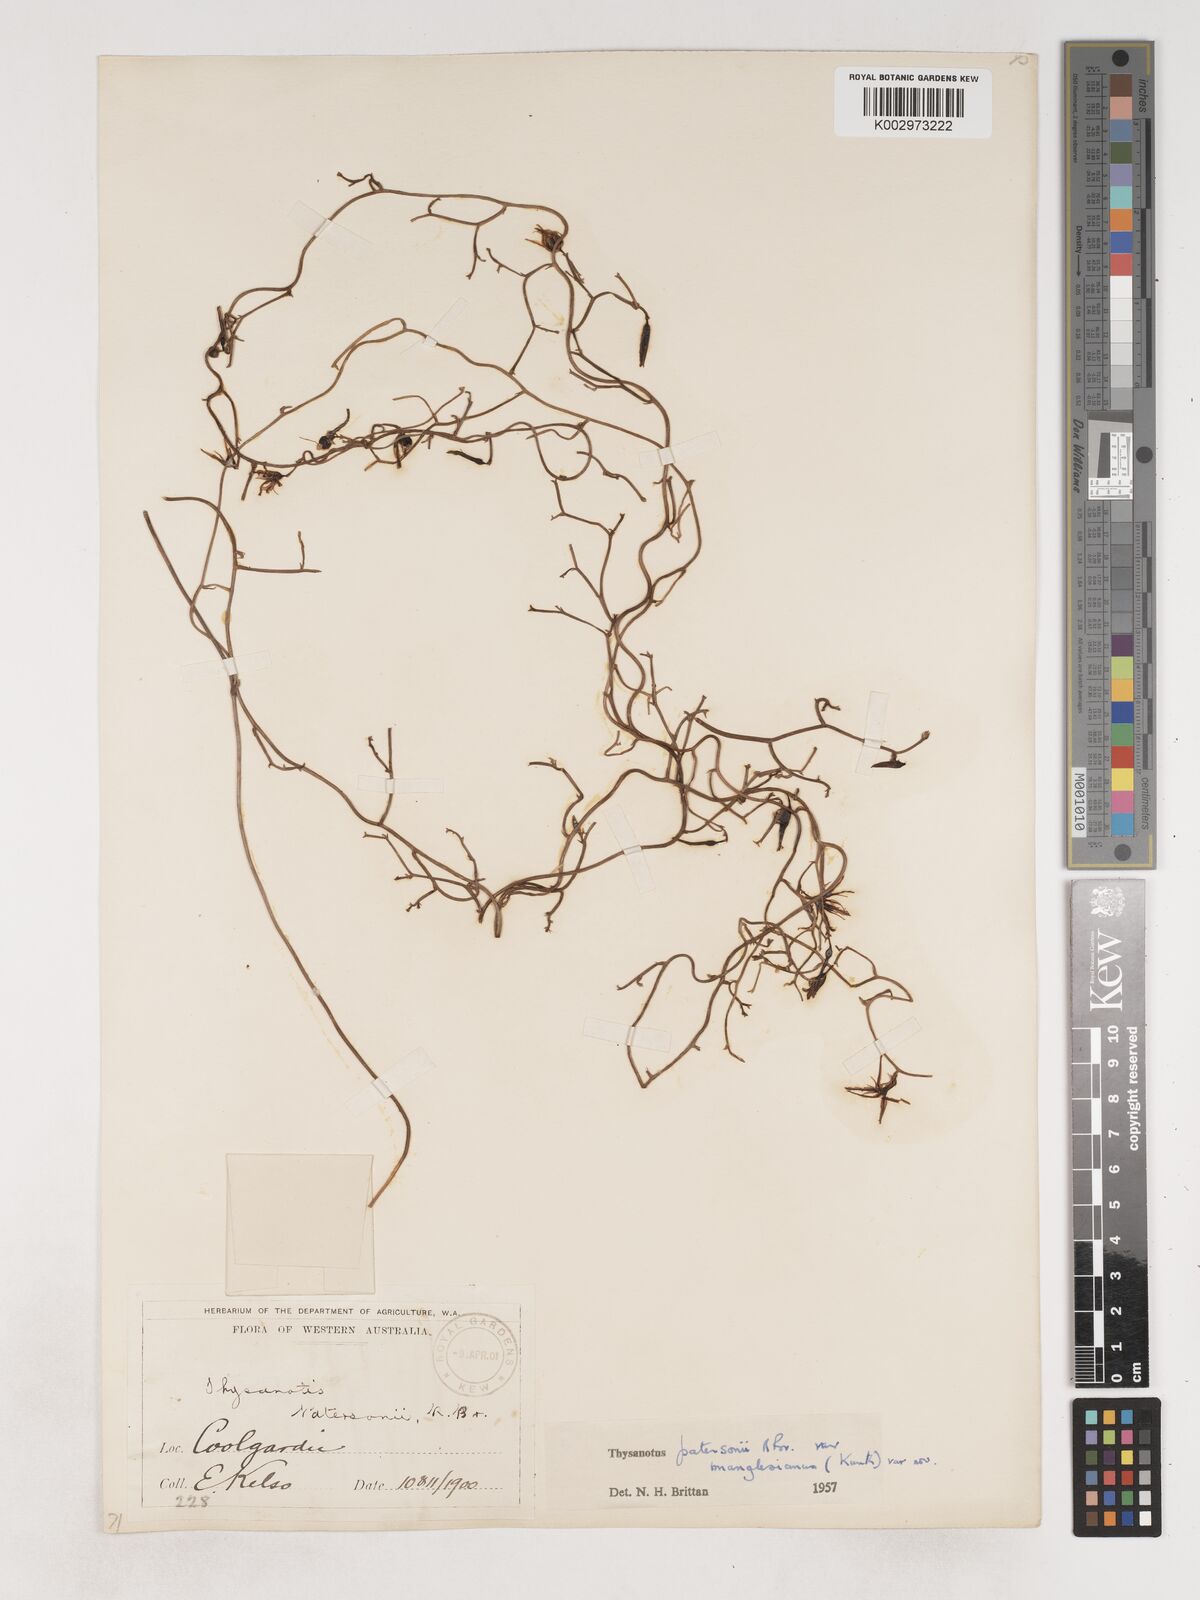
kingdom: Plantae
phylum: Tracheophyta
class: Liliopsida
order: Asparagales
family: Asparagaceae
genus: Thysanotus
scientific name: Thysanotus manglesianus
